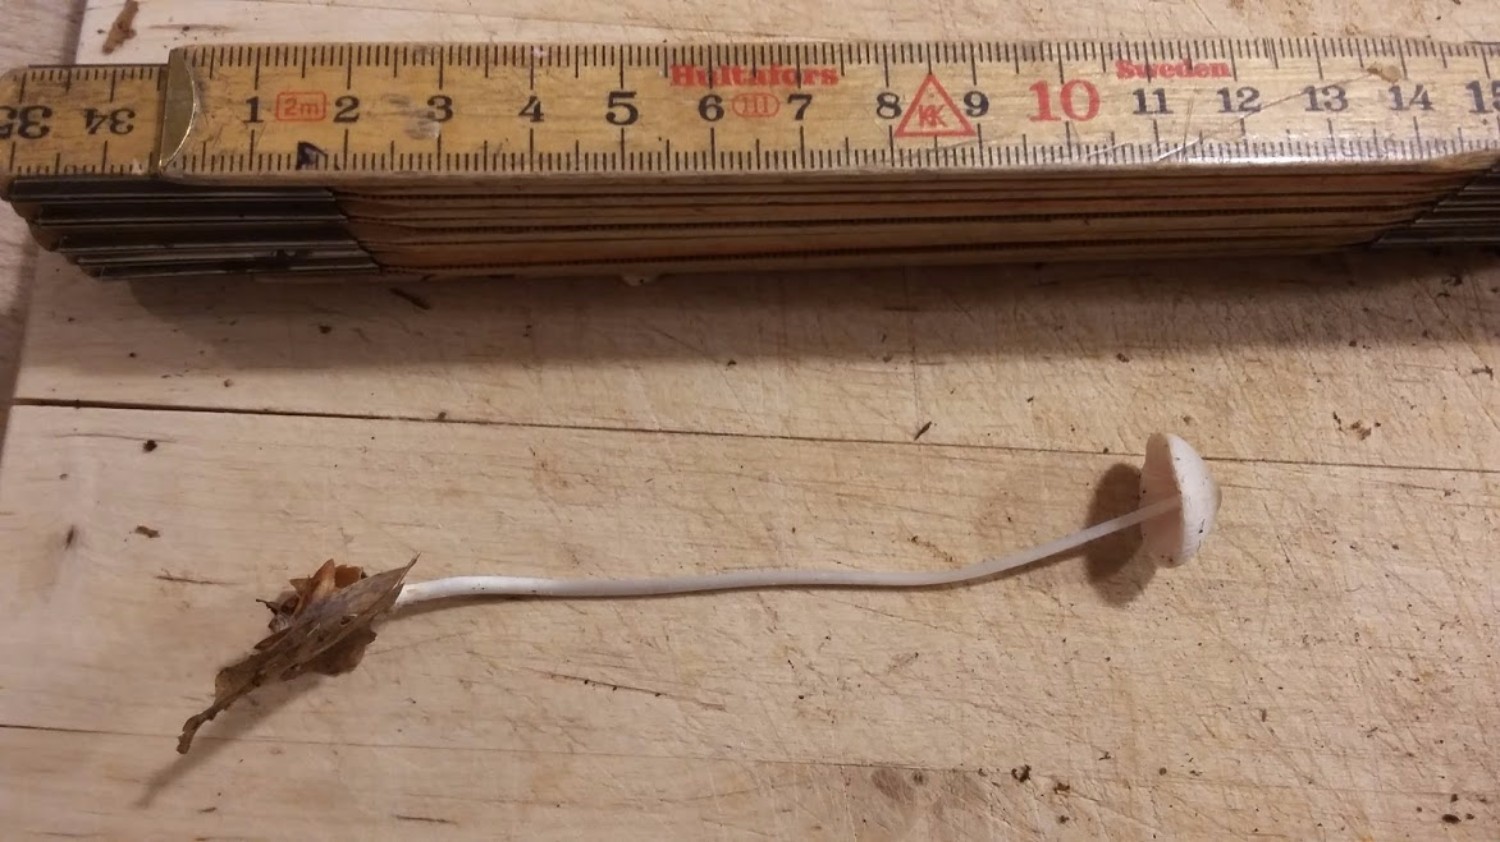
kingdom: Fungi
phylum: Basidiomycota
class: Agaricomycetes
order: Agaricales
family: Mycenaceae
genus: Mycena
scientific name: Mycena
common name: huesvamp
